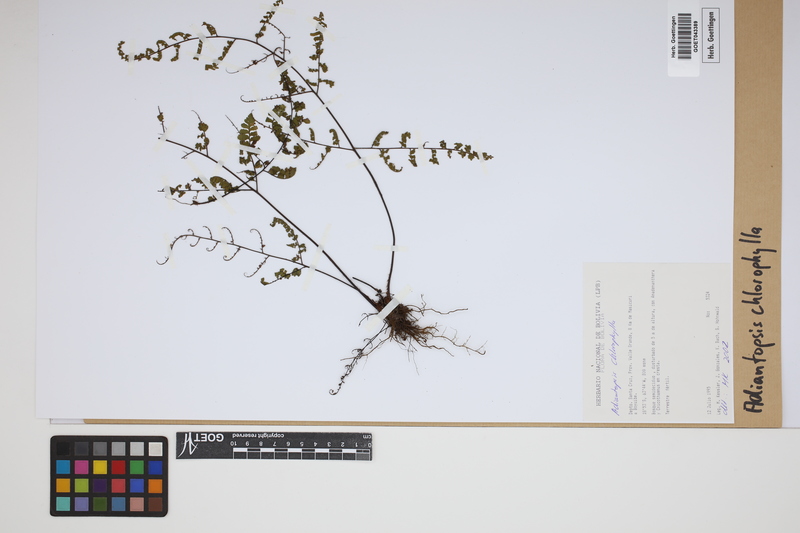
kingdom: Plantae
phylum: Tracheophyta
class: Polypodiopsida
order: Polypodiales
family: Pteridaceae
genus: Adiantopsis
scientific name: Adiantopsis chlorophylla
